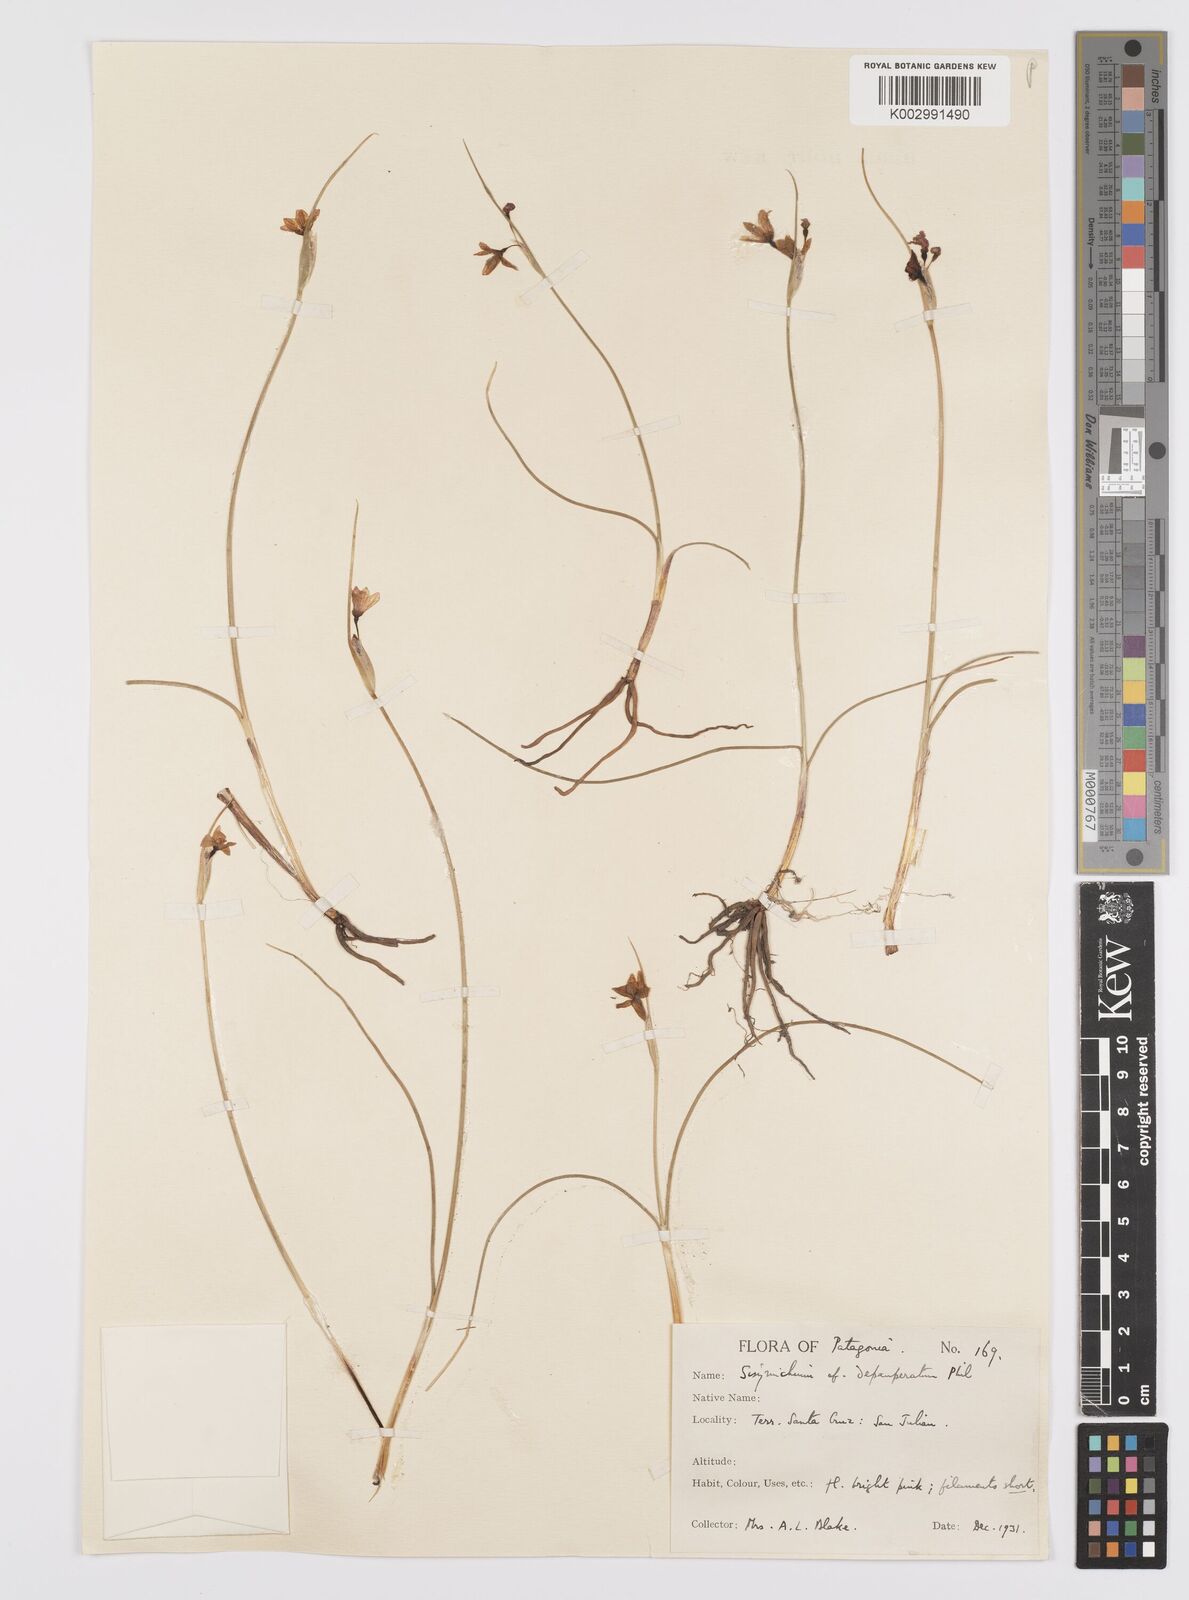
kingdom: Plantae
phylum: Tracheophyta
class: Liliopsida
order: Asparagales
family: Iridaceae
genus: Olsynium
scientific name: Olsynium
